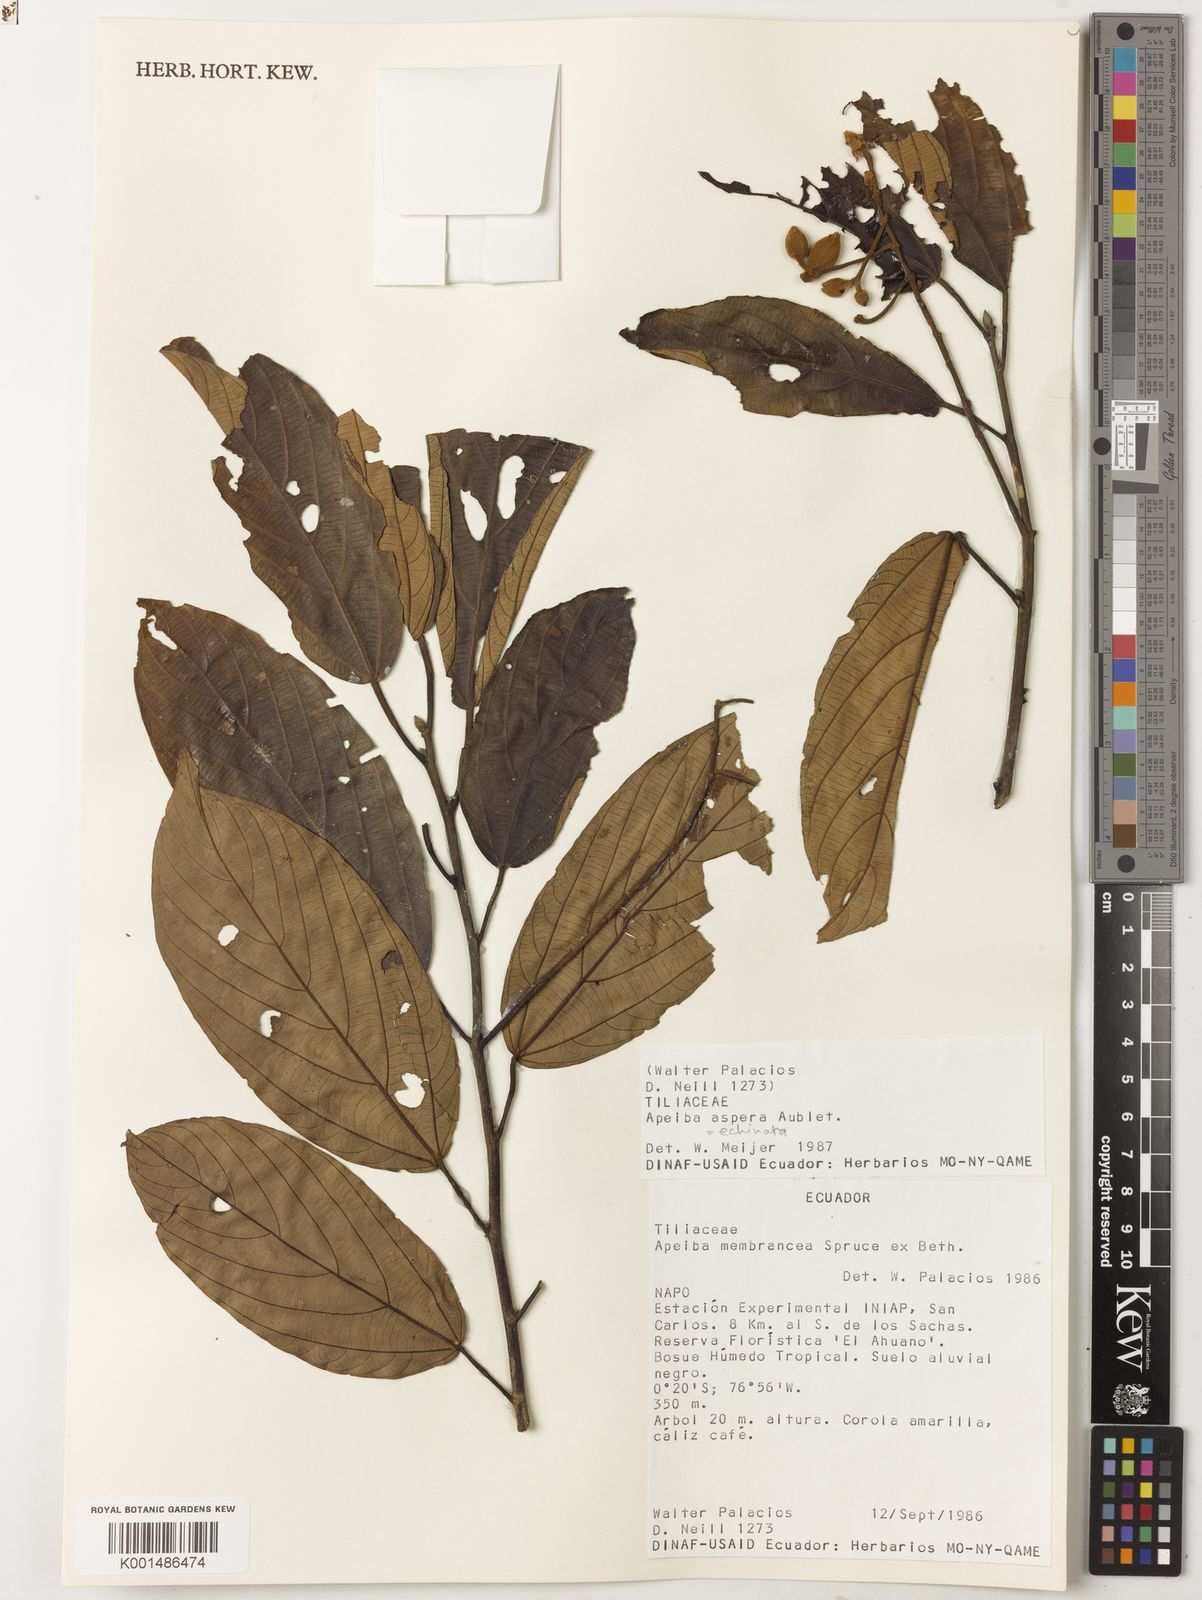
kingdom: Plantae
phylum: Tracheophyta
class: Magnoliopsida
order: Malvales
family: Malvaceae
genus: Apeiba
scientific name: Apeiba glabra
